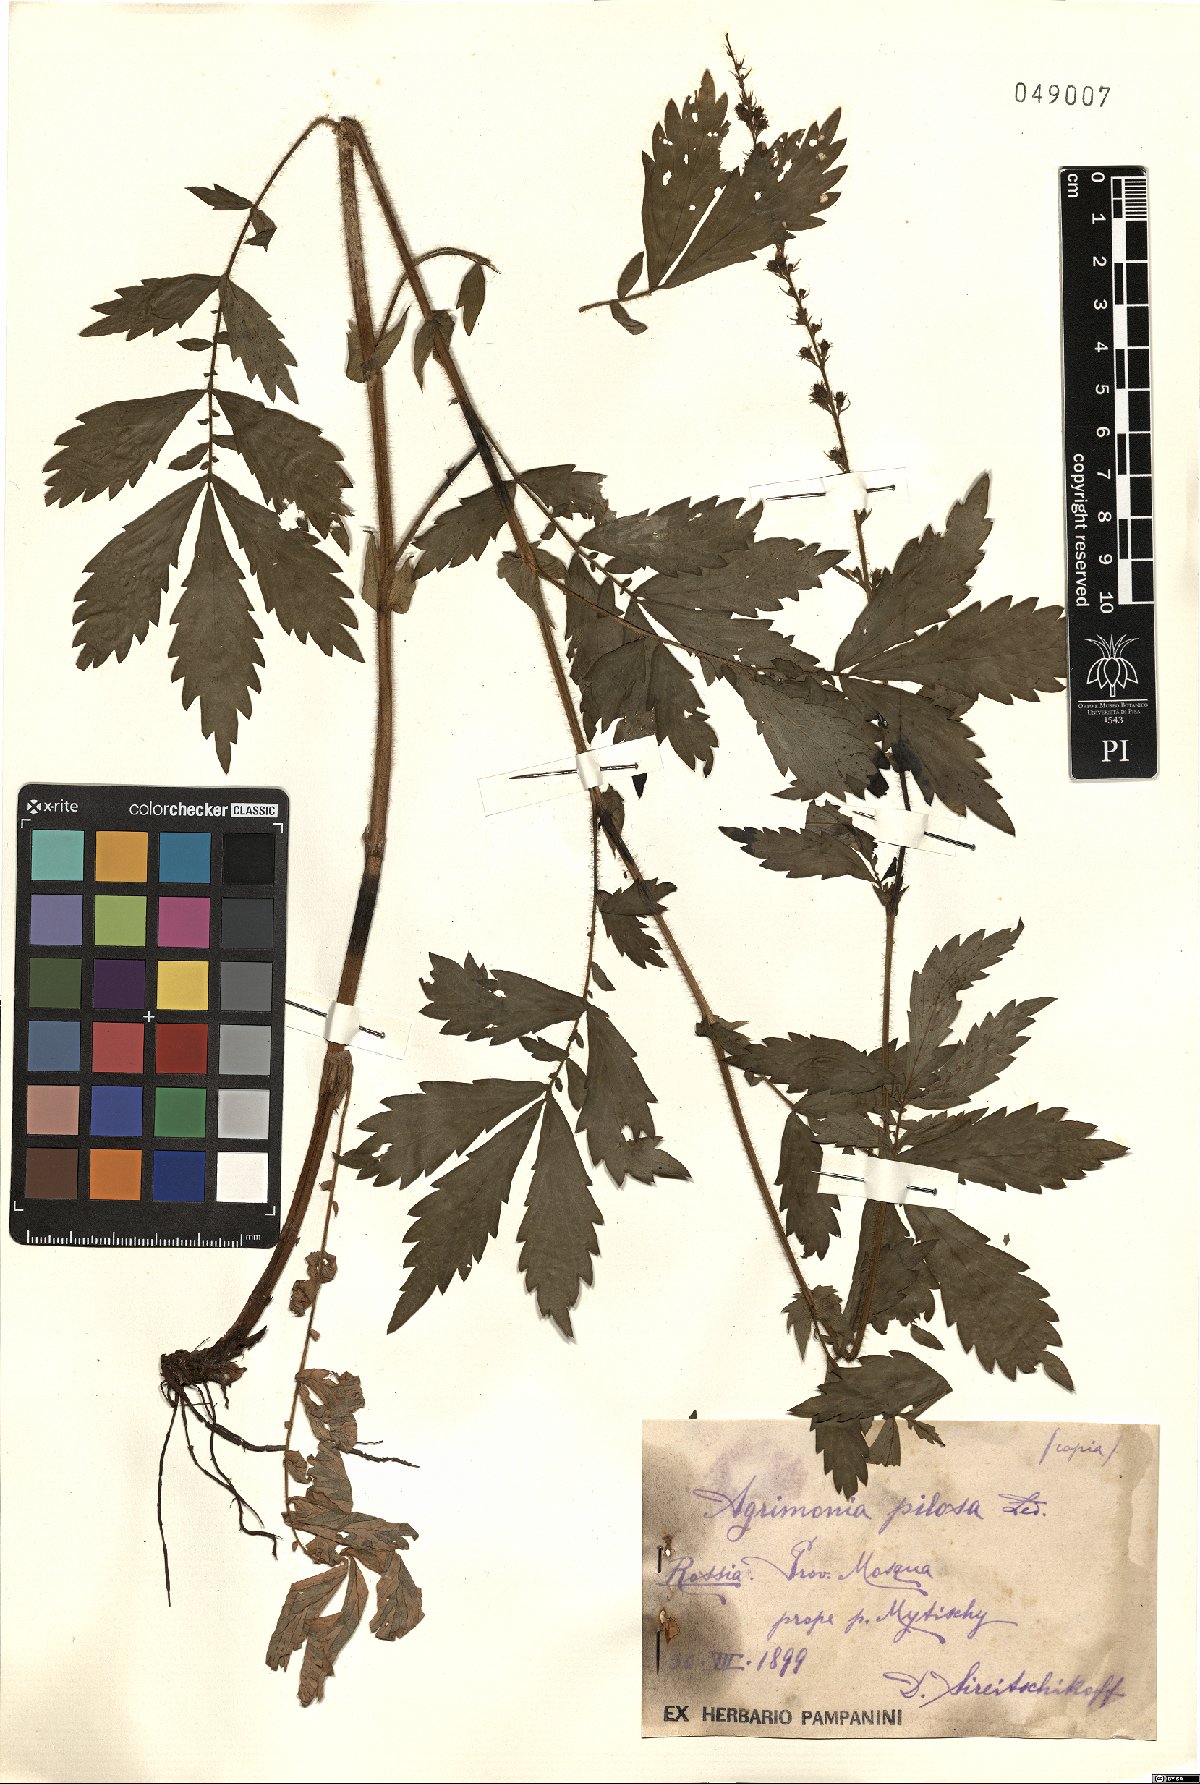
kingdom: Plantae
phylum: Tracheophyta
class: Magnoliopsida
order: Rosales
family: Rosaceae
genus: Agrimonia
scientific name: Agrimonia pilosa
